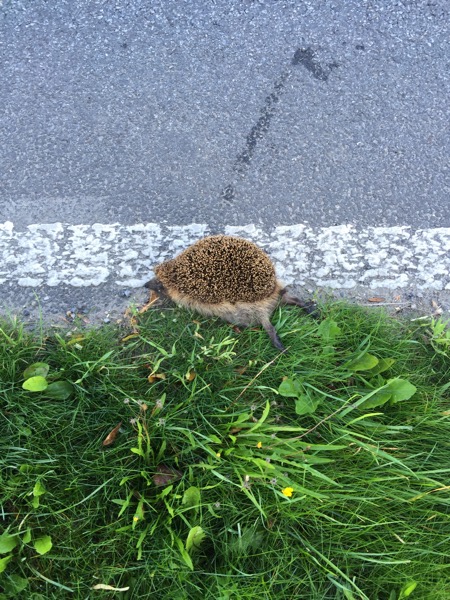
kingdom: Animalia
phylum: Chordata
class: Mammalia
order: Erinaceomorpha
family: Erinaceidae
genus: Erinaceus
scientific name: Erinaceus
